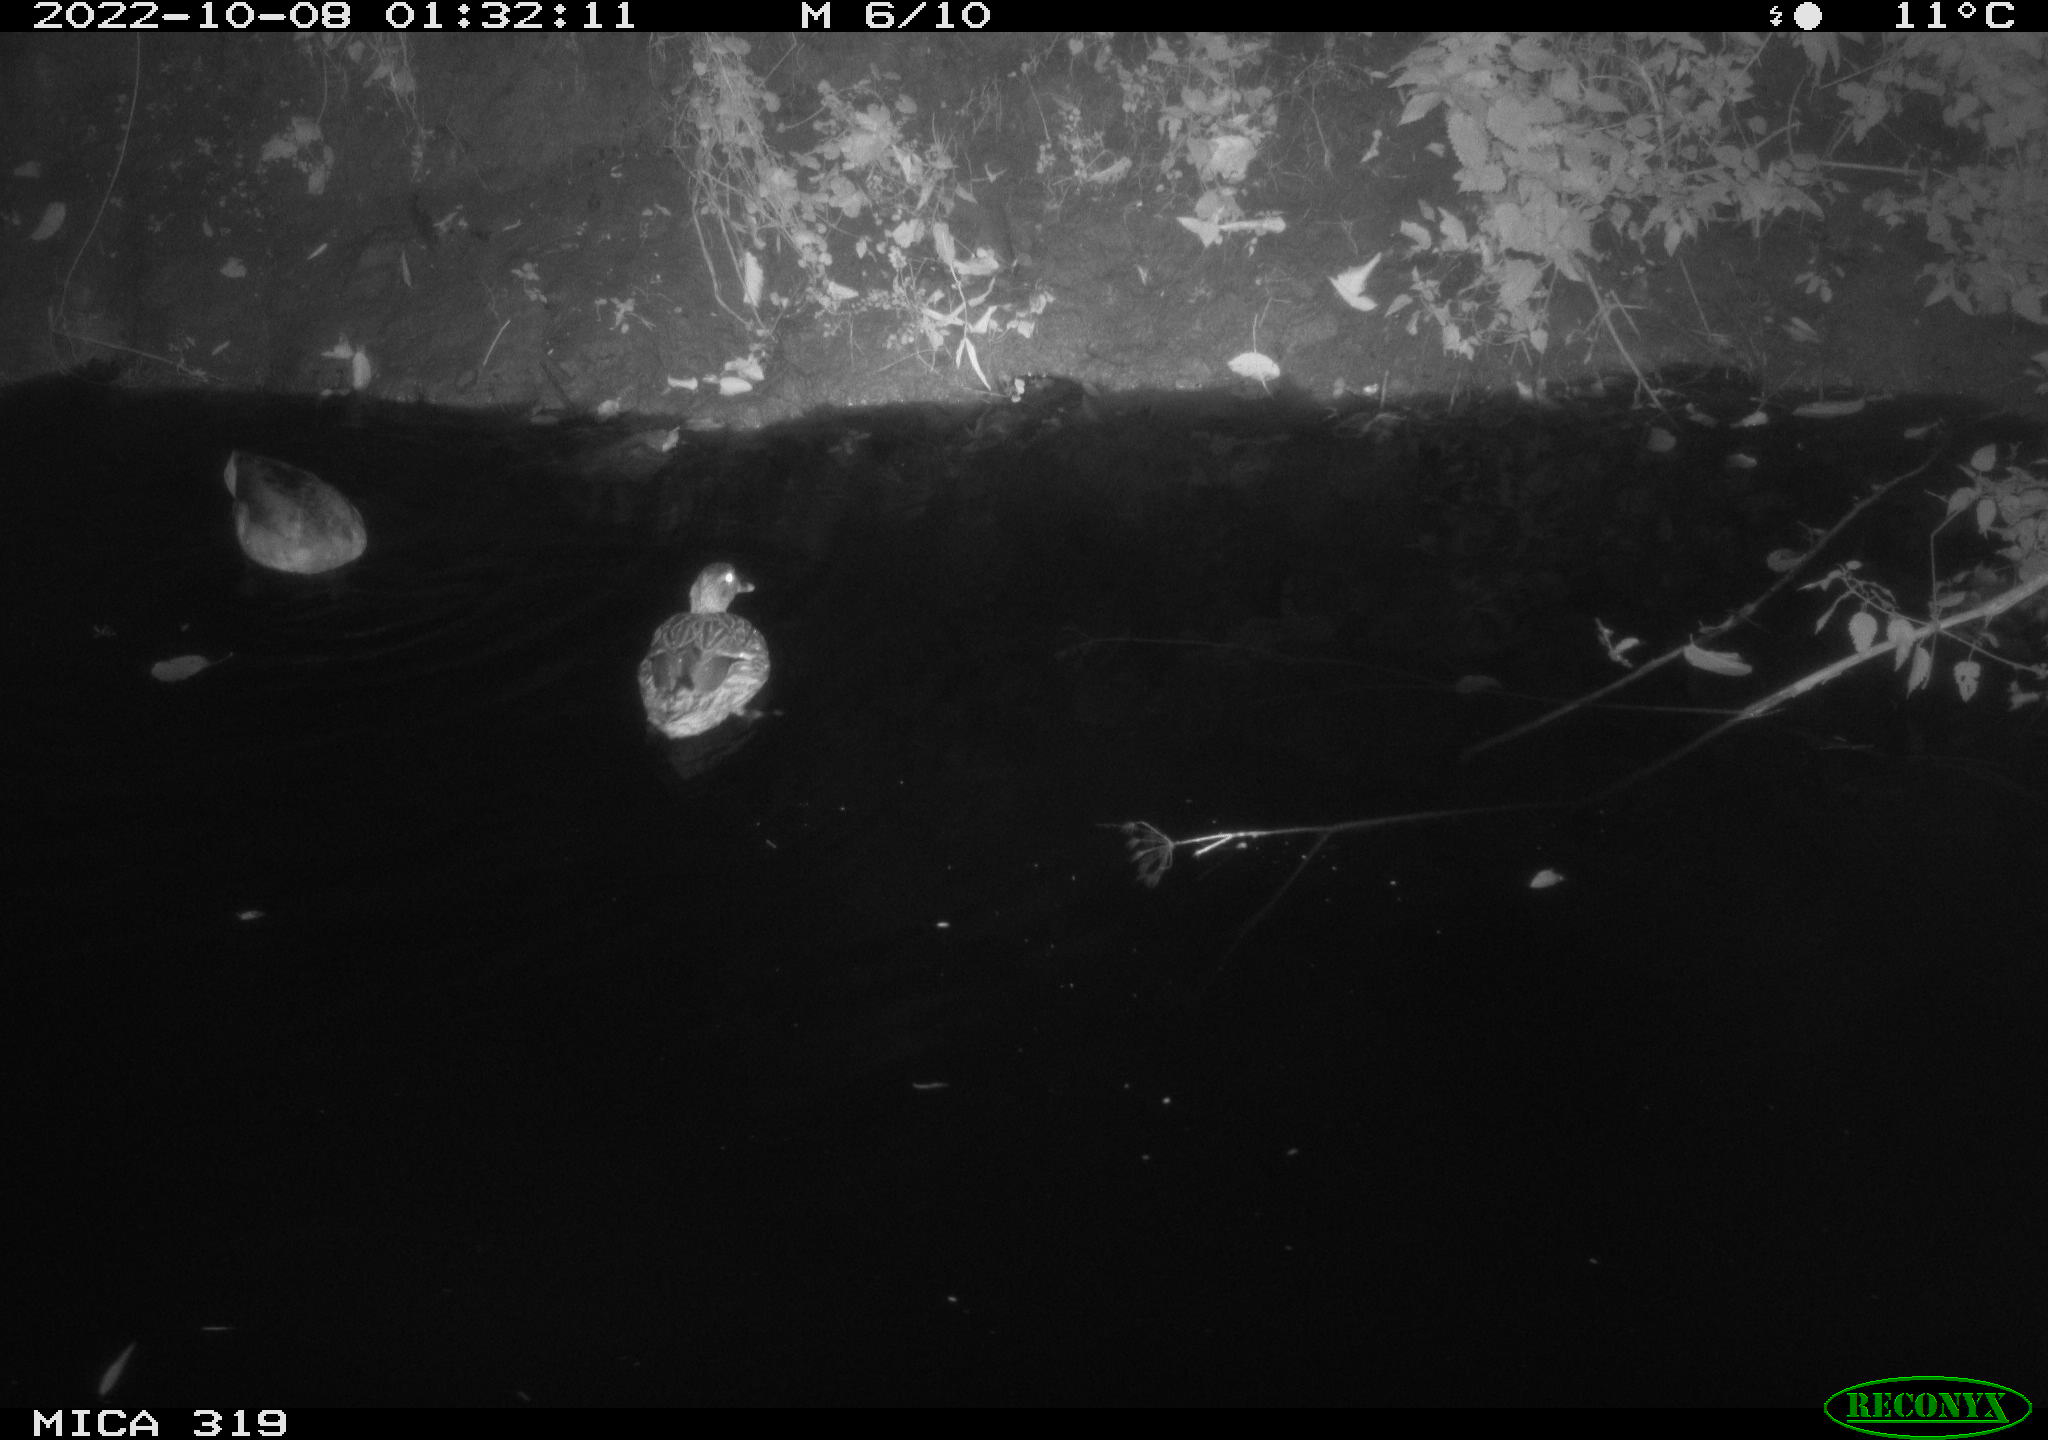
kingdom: Animalia
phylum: Chordata
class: Aves
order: Anseriformes
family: Anatidae
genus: Anas
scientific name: Anas
